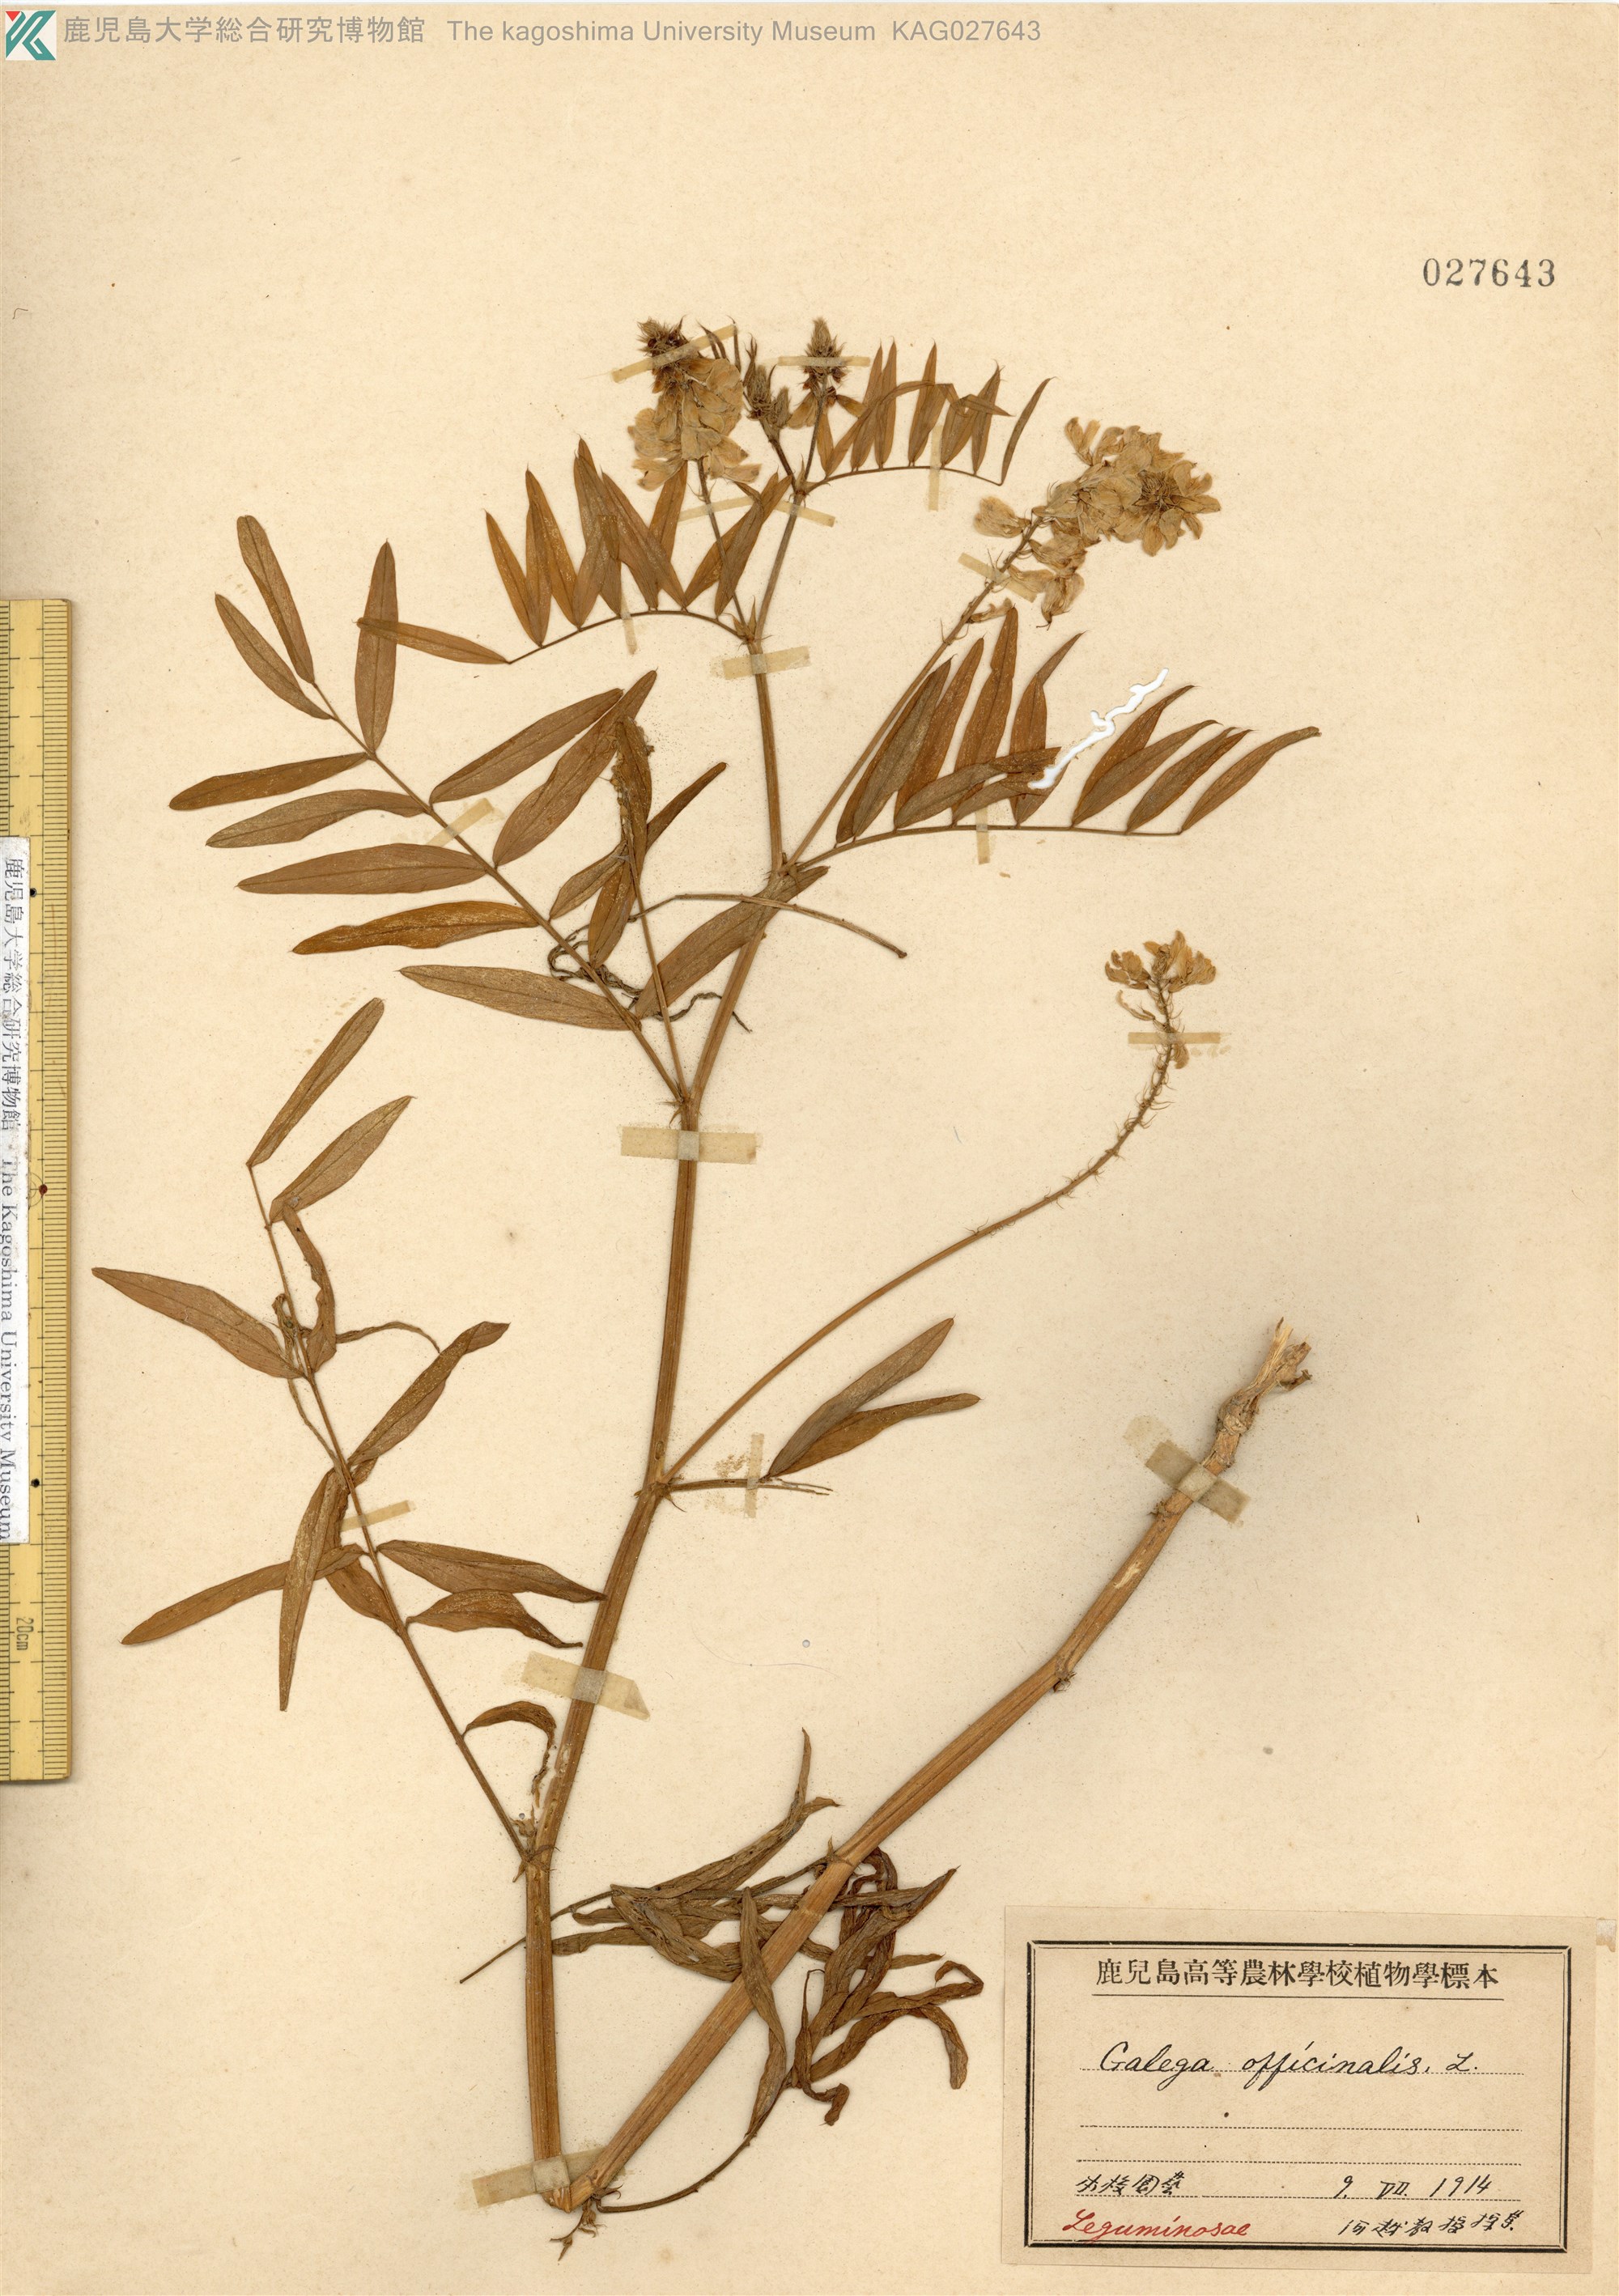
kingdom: Plantae
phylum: Tracheophyta
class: Magnoliopsida
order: Fabales
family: Fabaceae
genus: Galega
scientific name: Galega officinalis
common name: Goat's-rue
